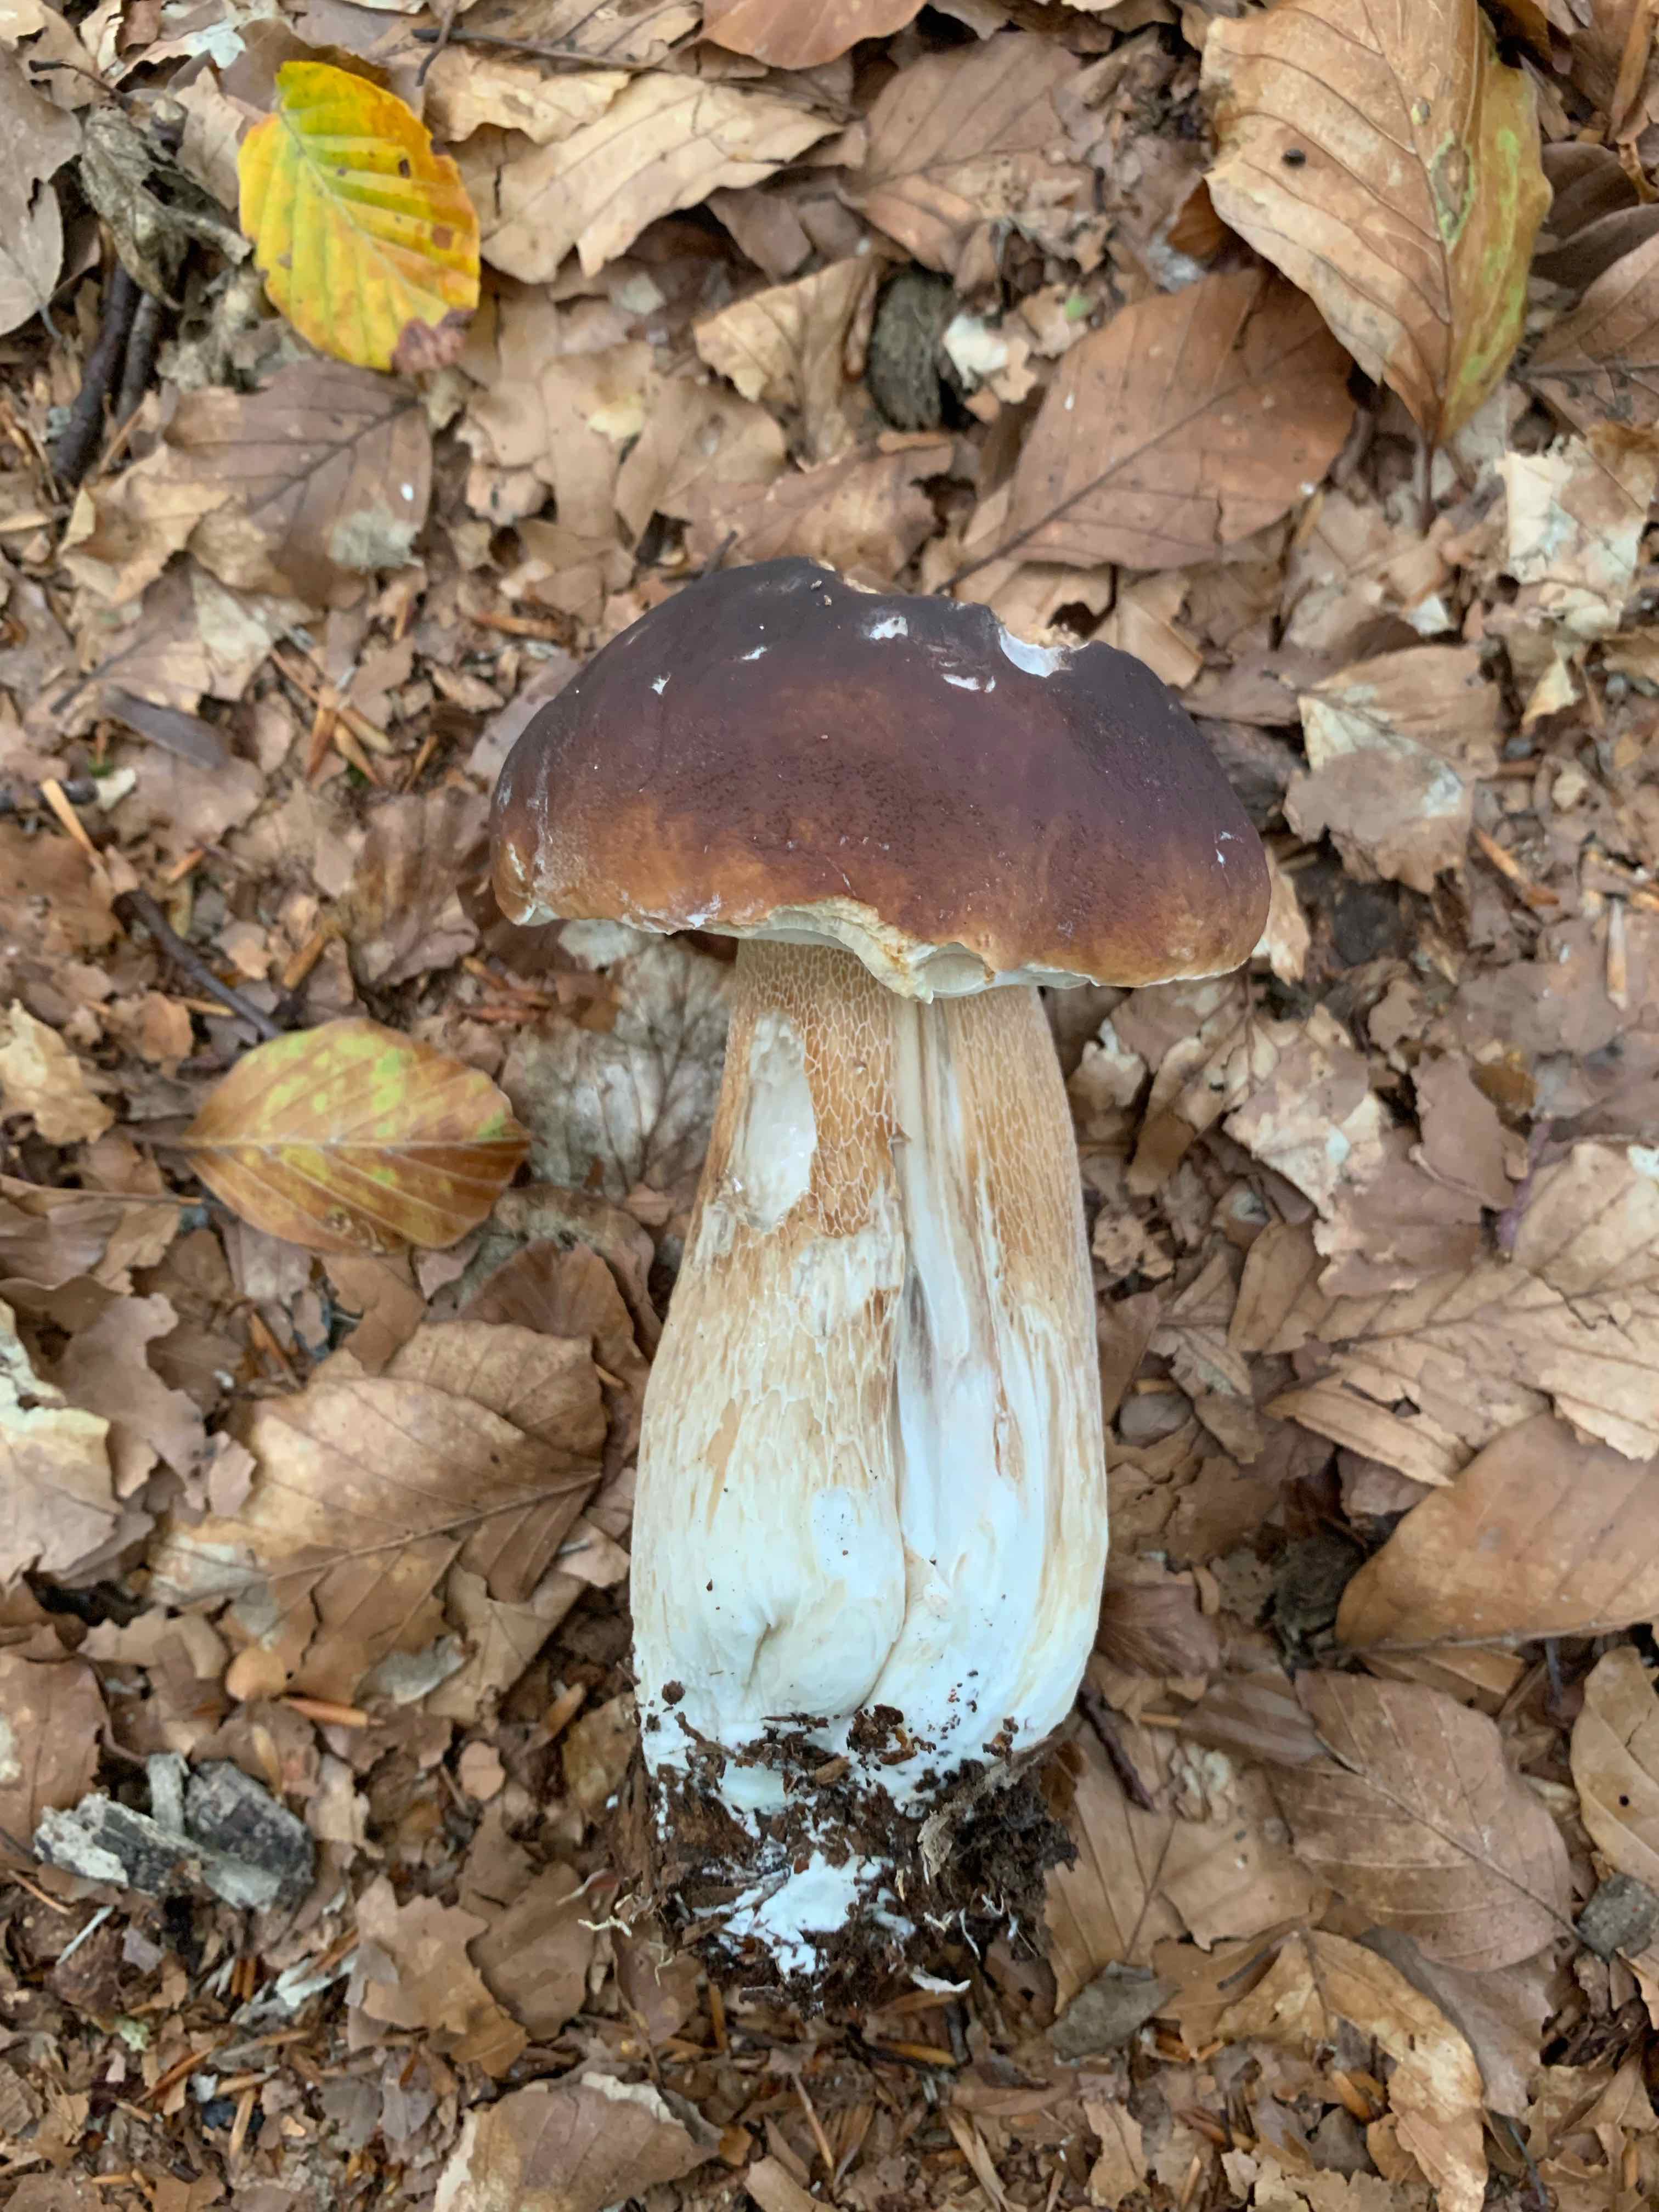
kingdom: Fungi
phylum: Basidiomycota
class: Agaricomycetes
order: Boletales
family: Boletaceae
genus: Boletus
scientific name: Boletus edulis
